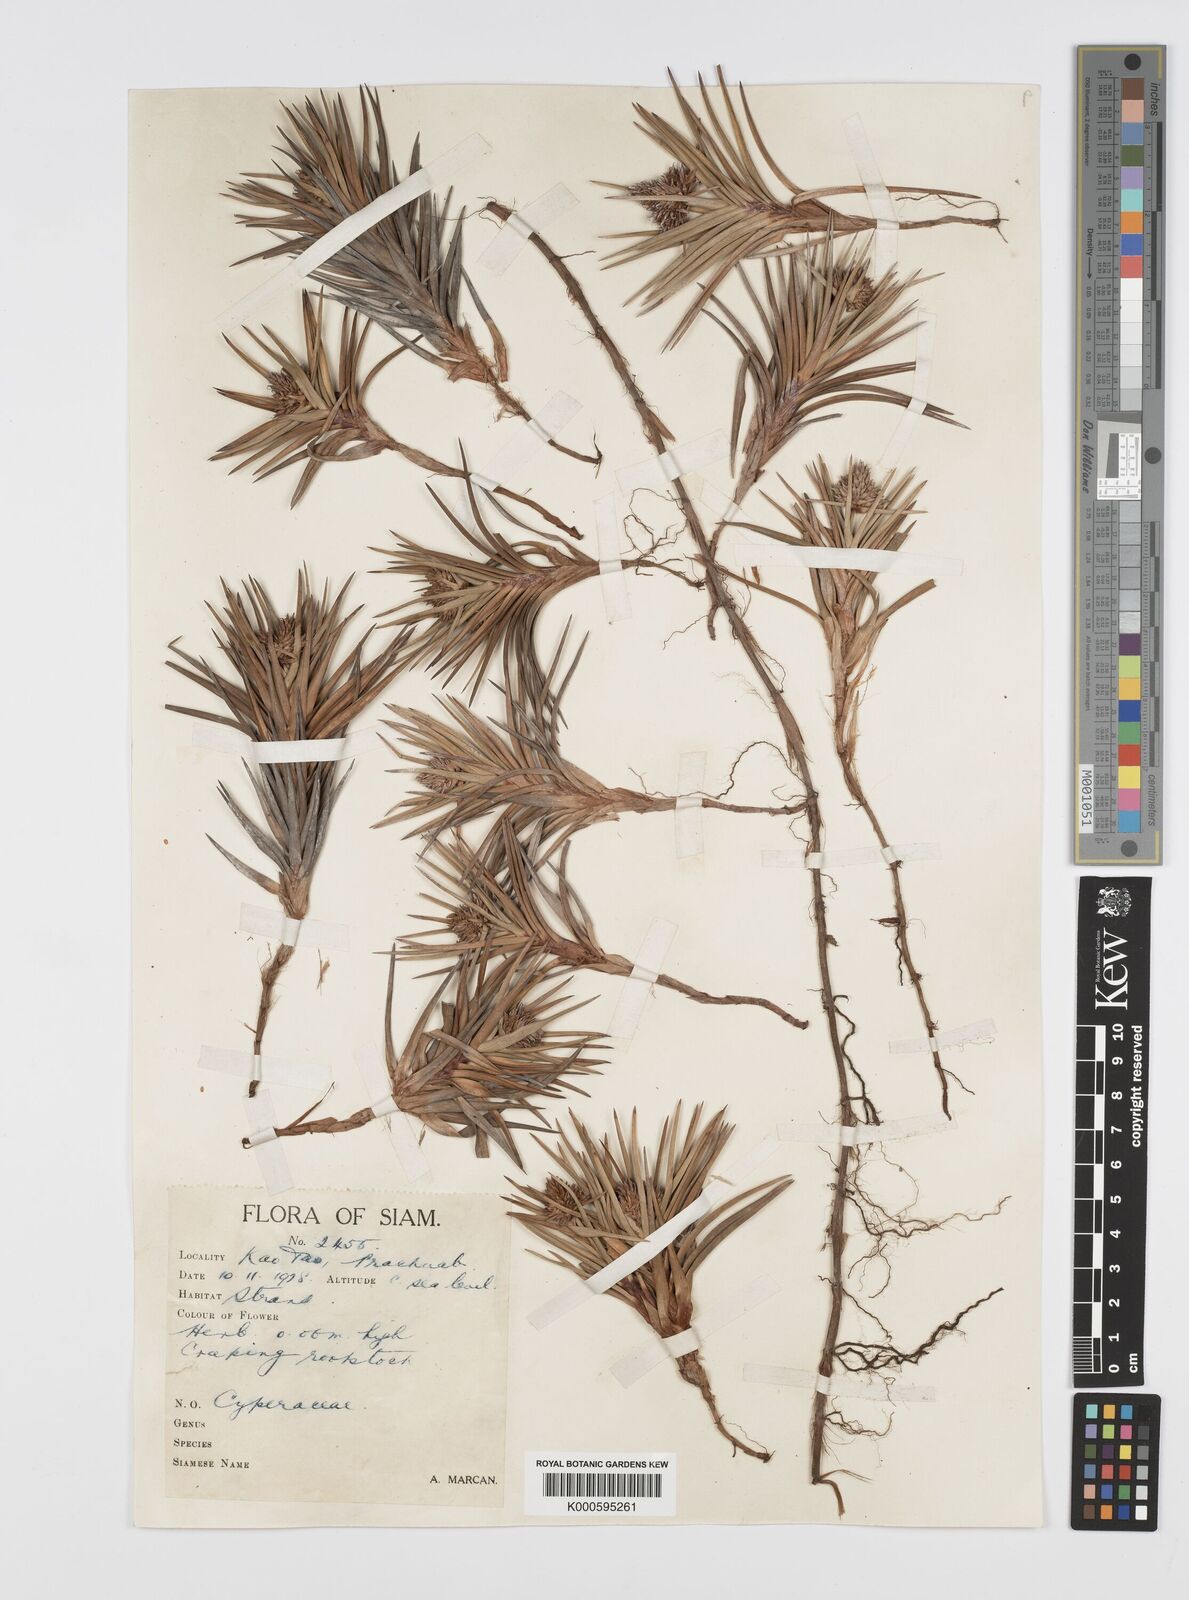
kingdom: Plantae
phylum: Tracheophyta
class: Liliopsida
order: Poales
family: Cyperaceae
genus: Cyperus
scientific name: Cyperus pedunculatus
